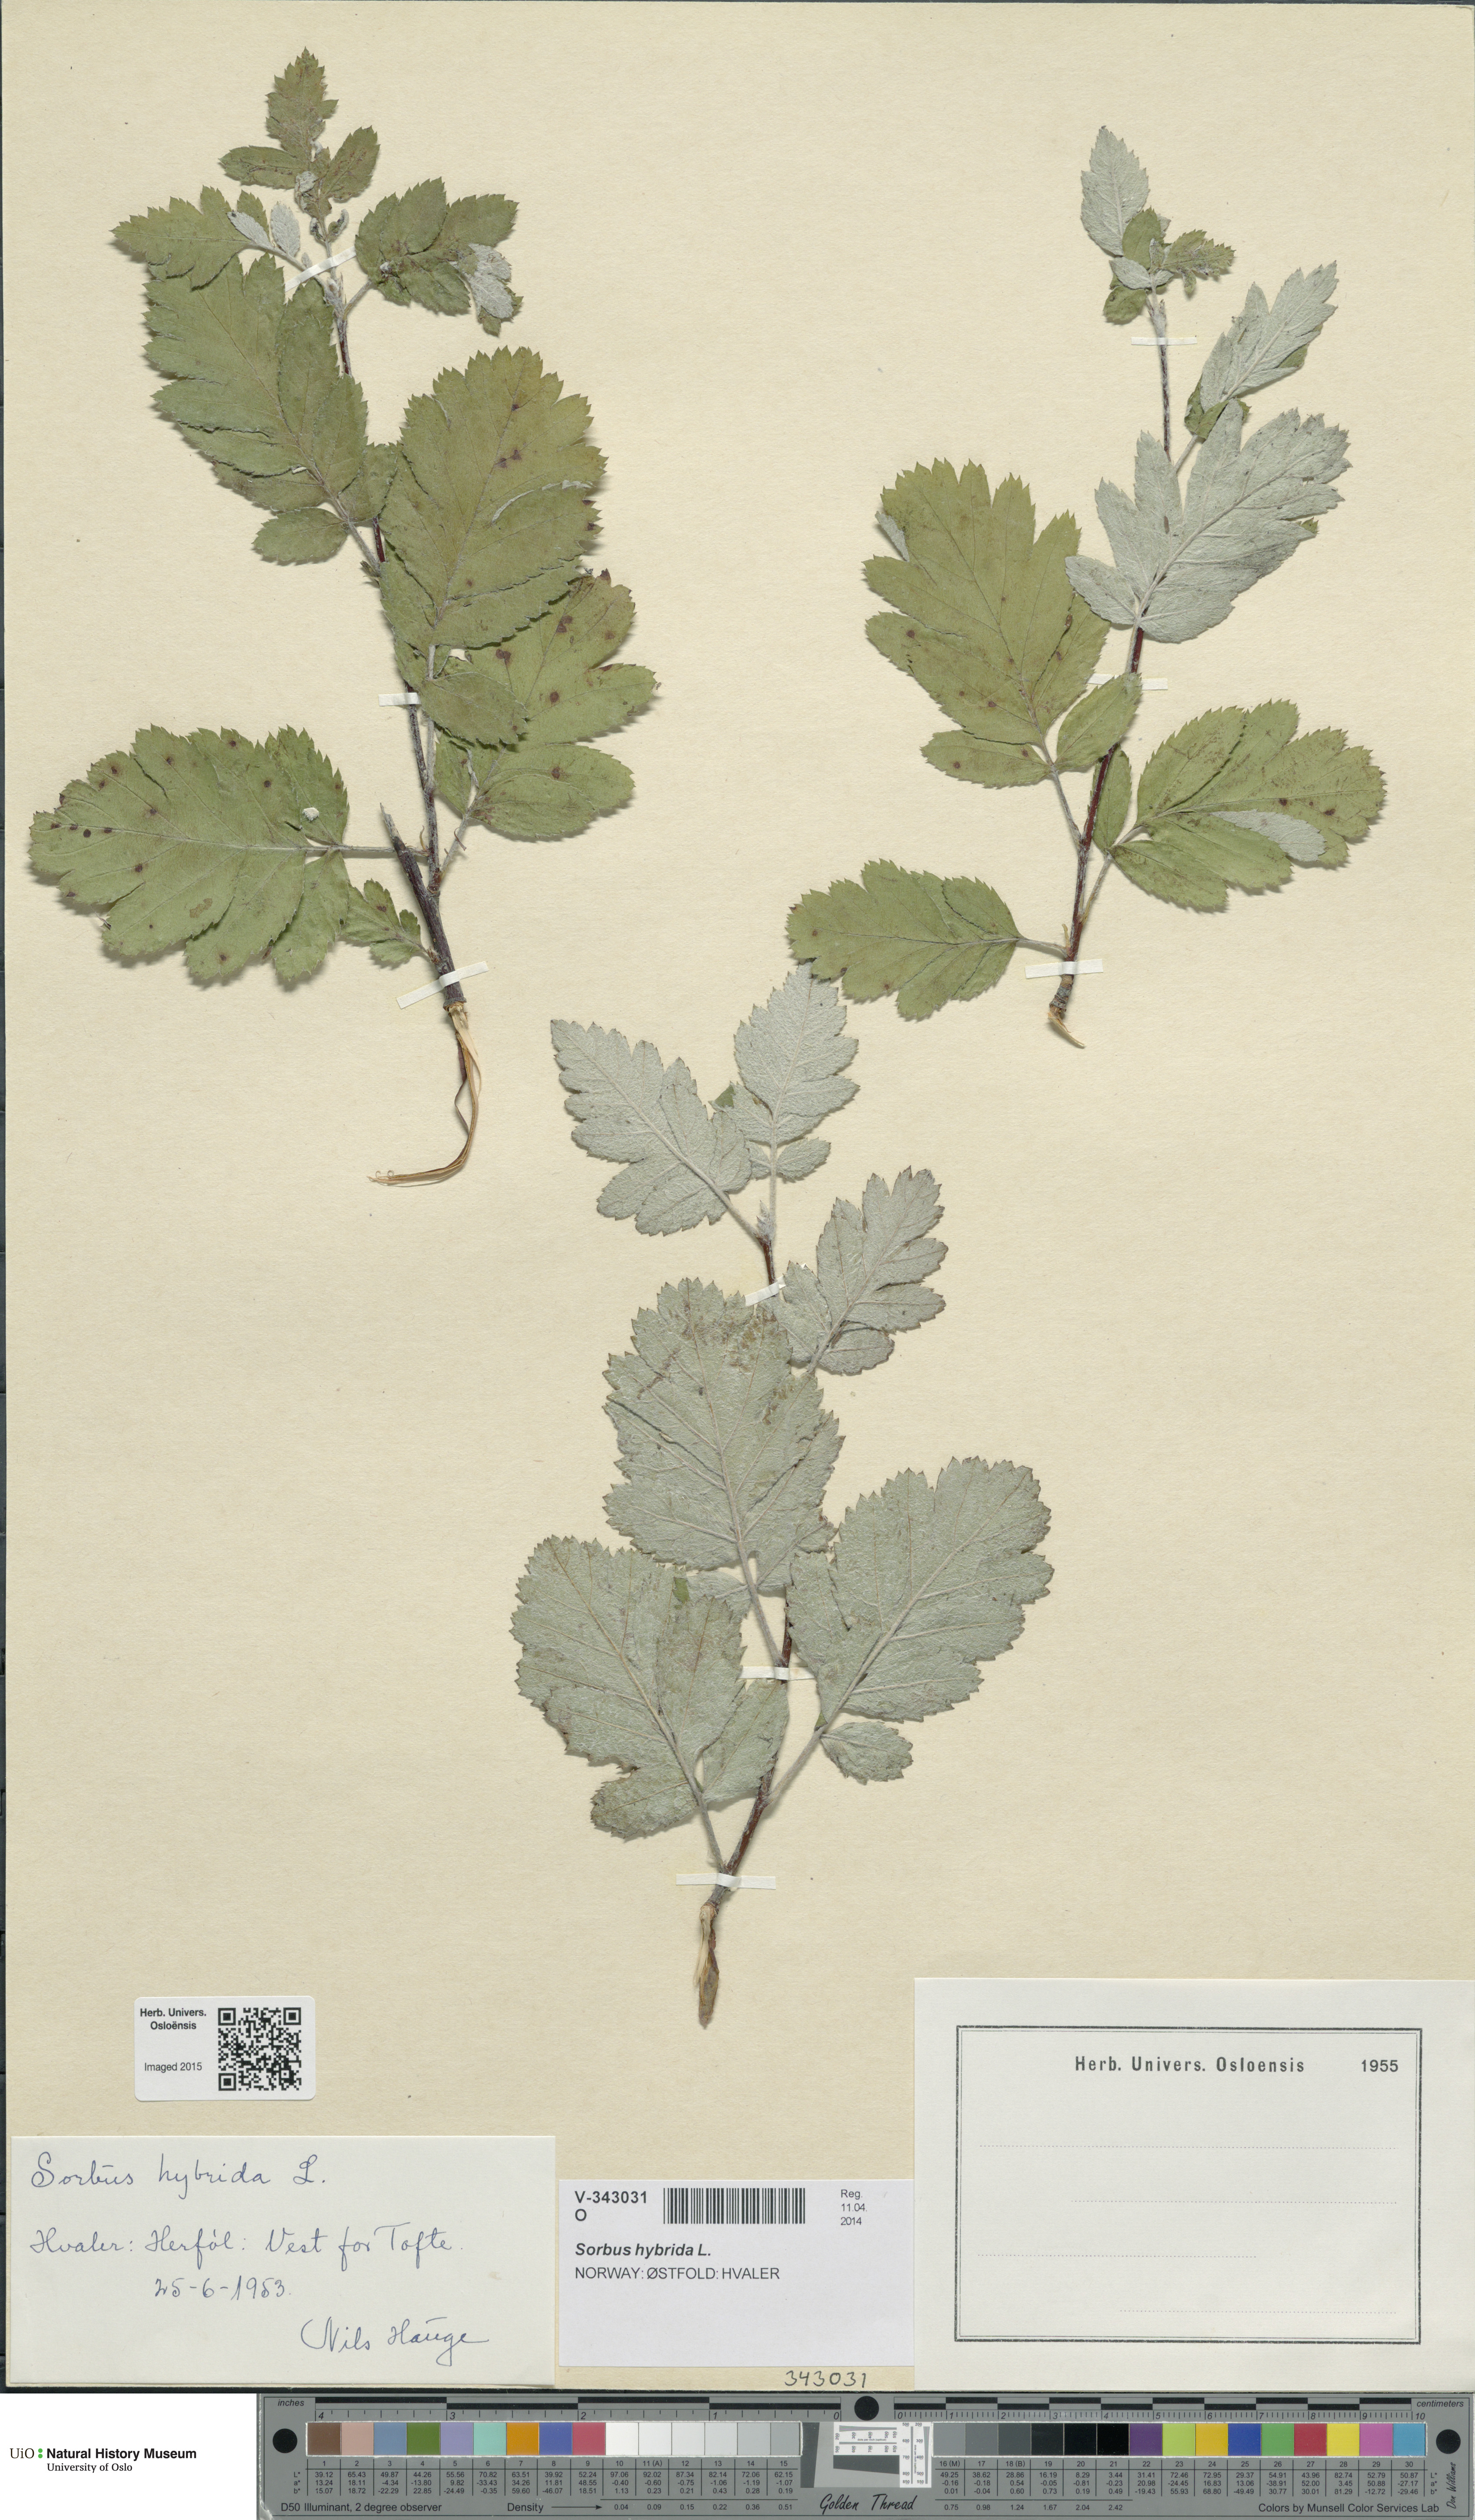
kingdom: Plantae
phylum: Tracheophyta
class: Magnoliopsida
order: Rosales
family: Rosaceae
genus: Hedlundia
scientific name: Hedlundia hybrida
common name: Swedish service-tree
